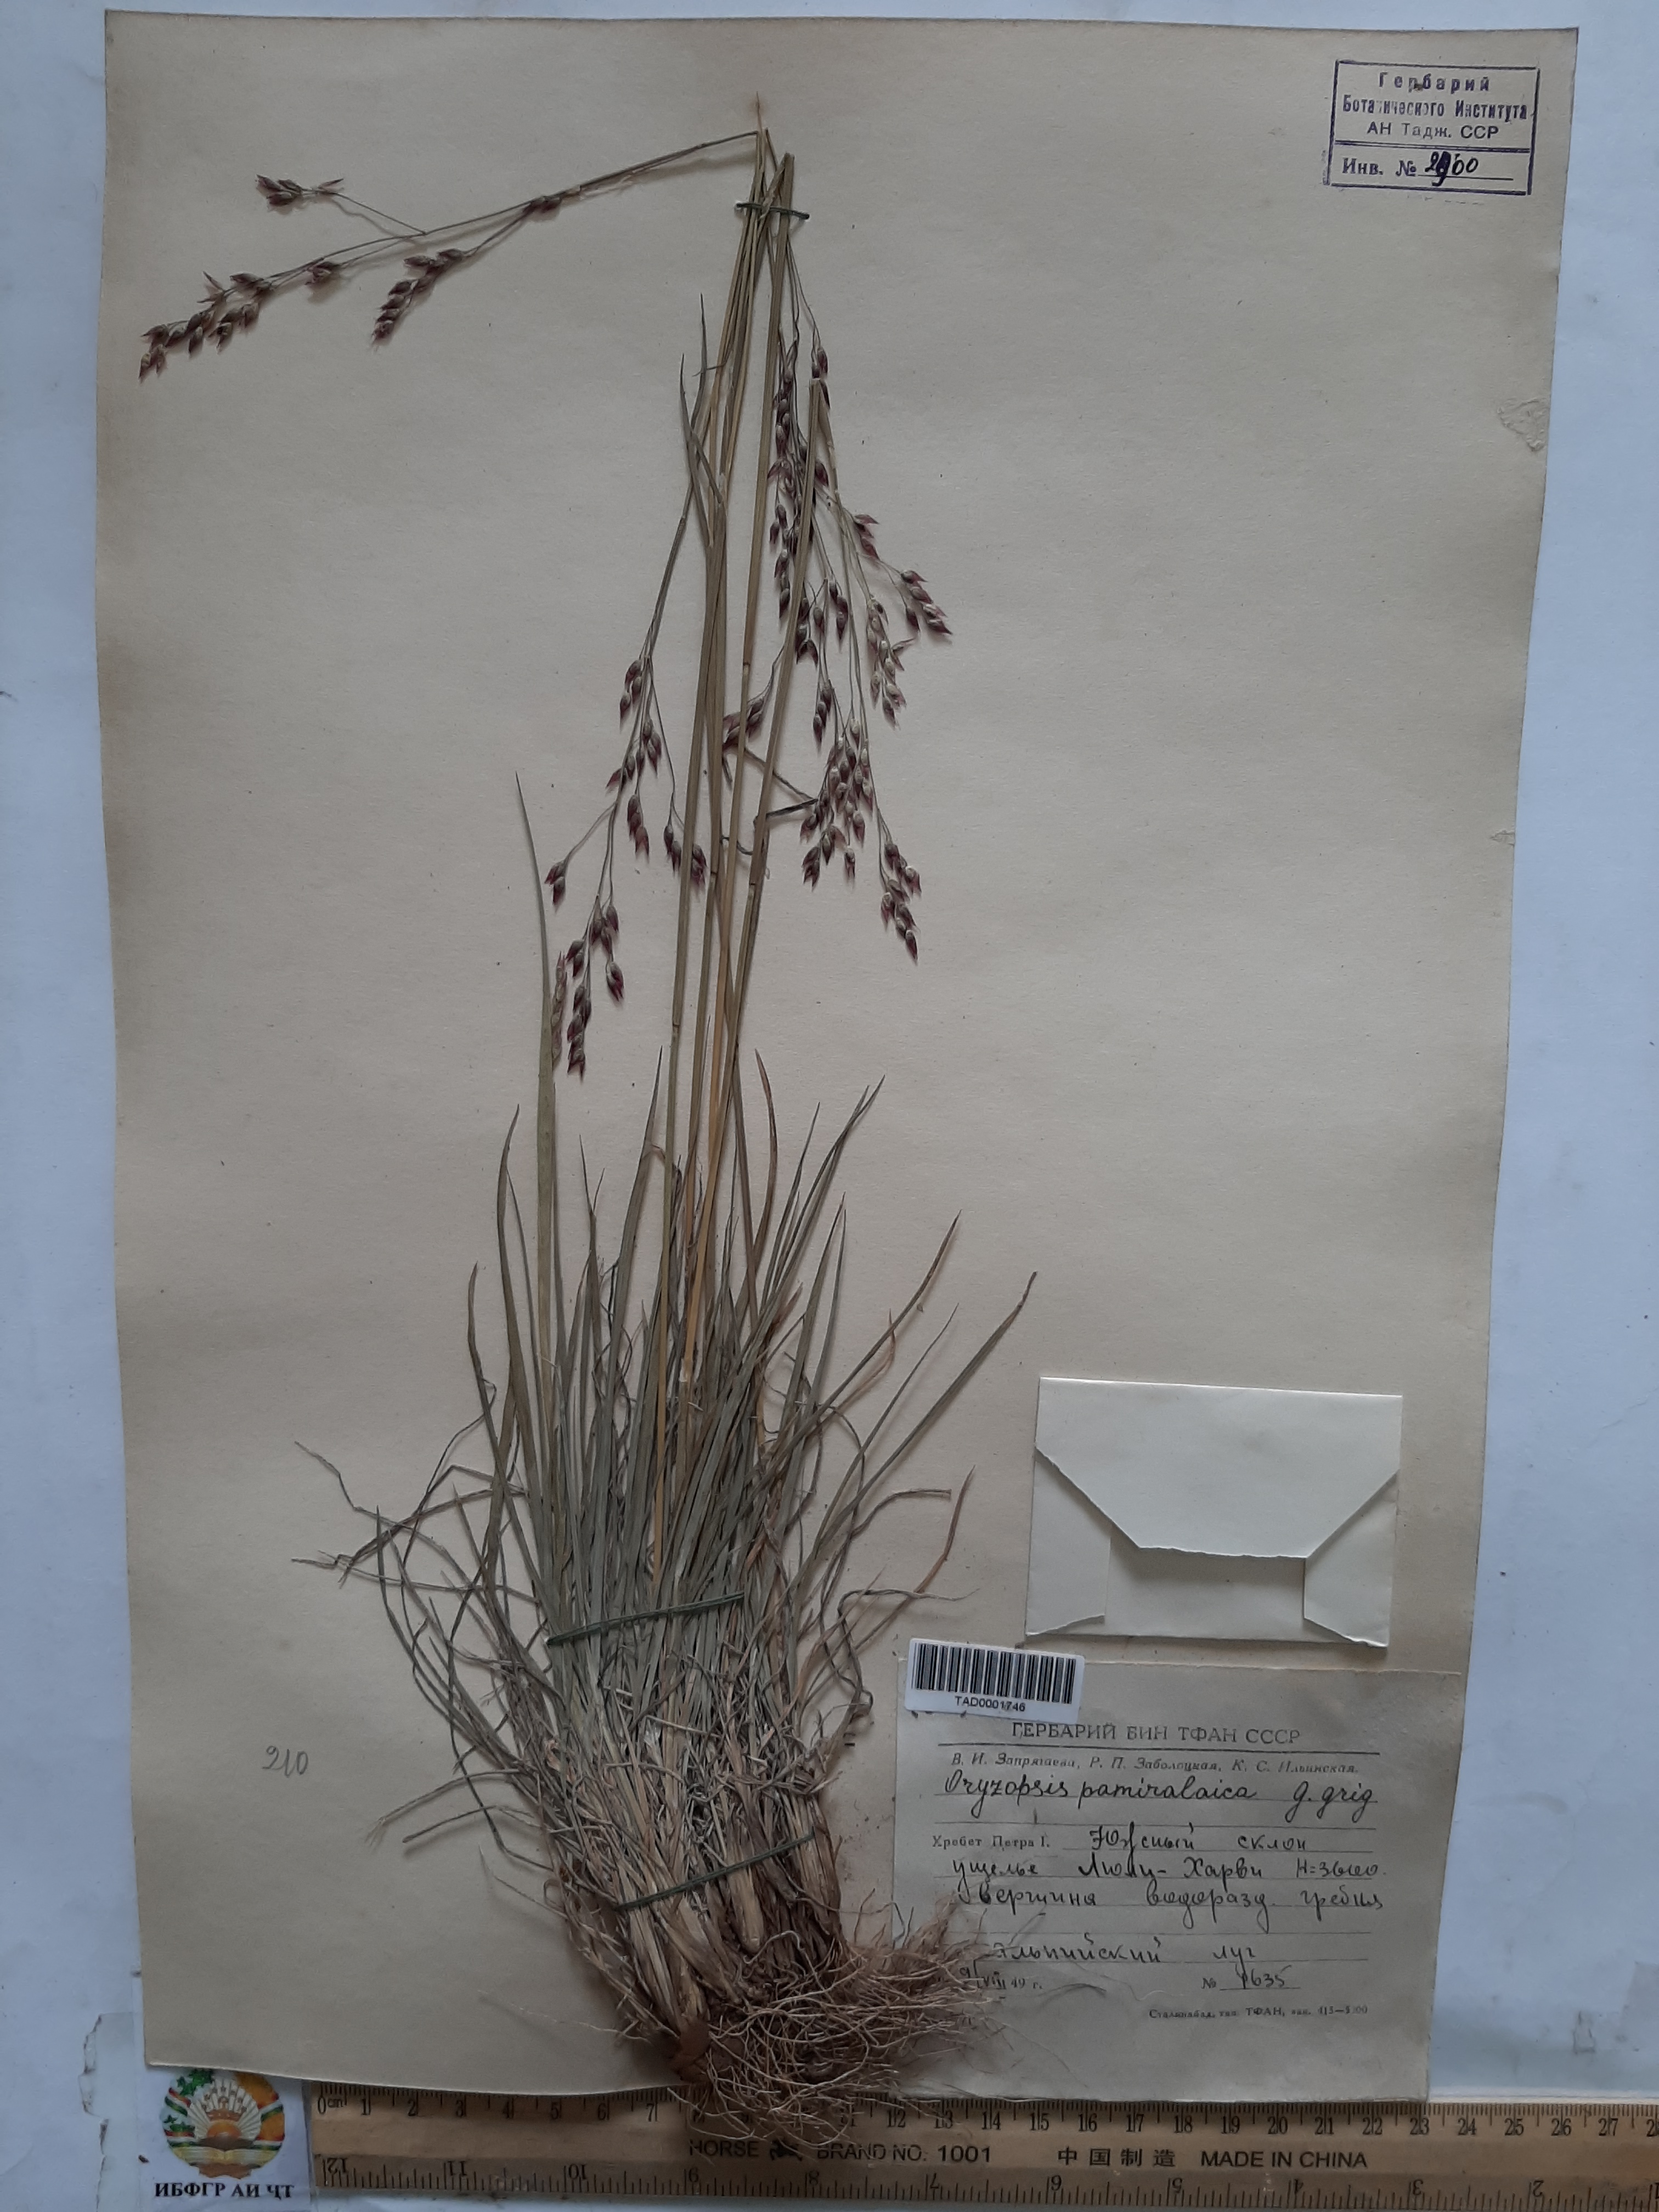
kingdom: Plantae
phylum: Tracheophyta
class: Liliopsida
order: Poales
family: Poaceae
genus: Piptatherum
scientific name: Piptatherum pamiralaicum
